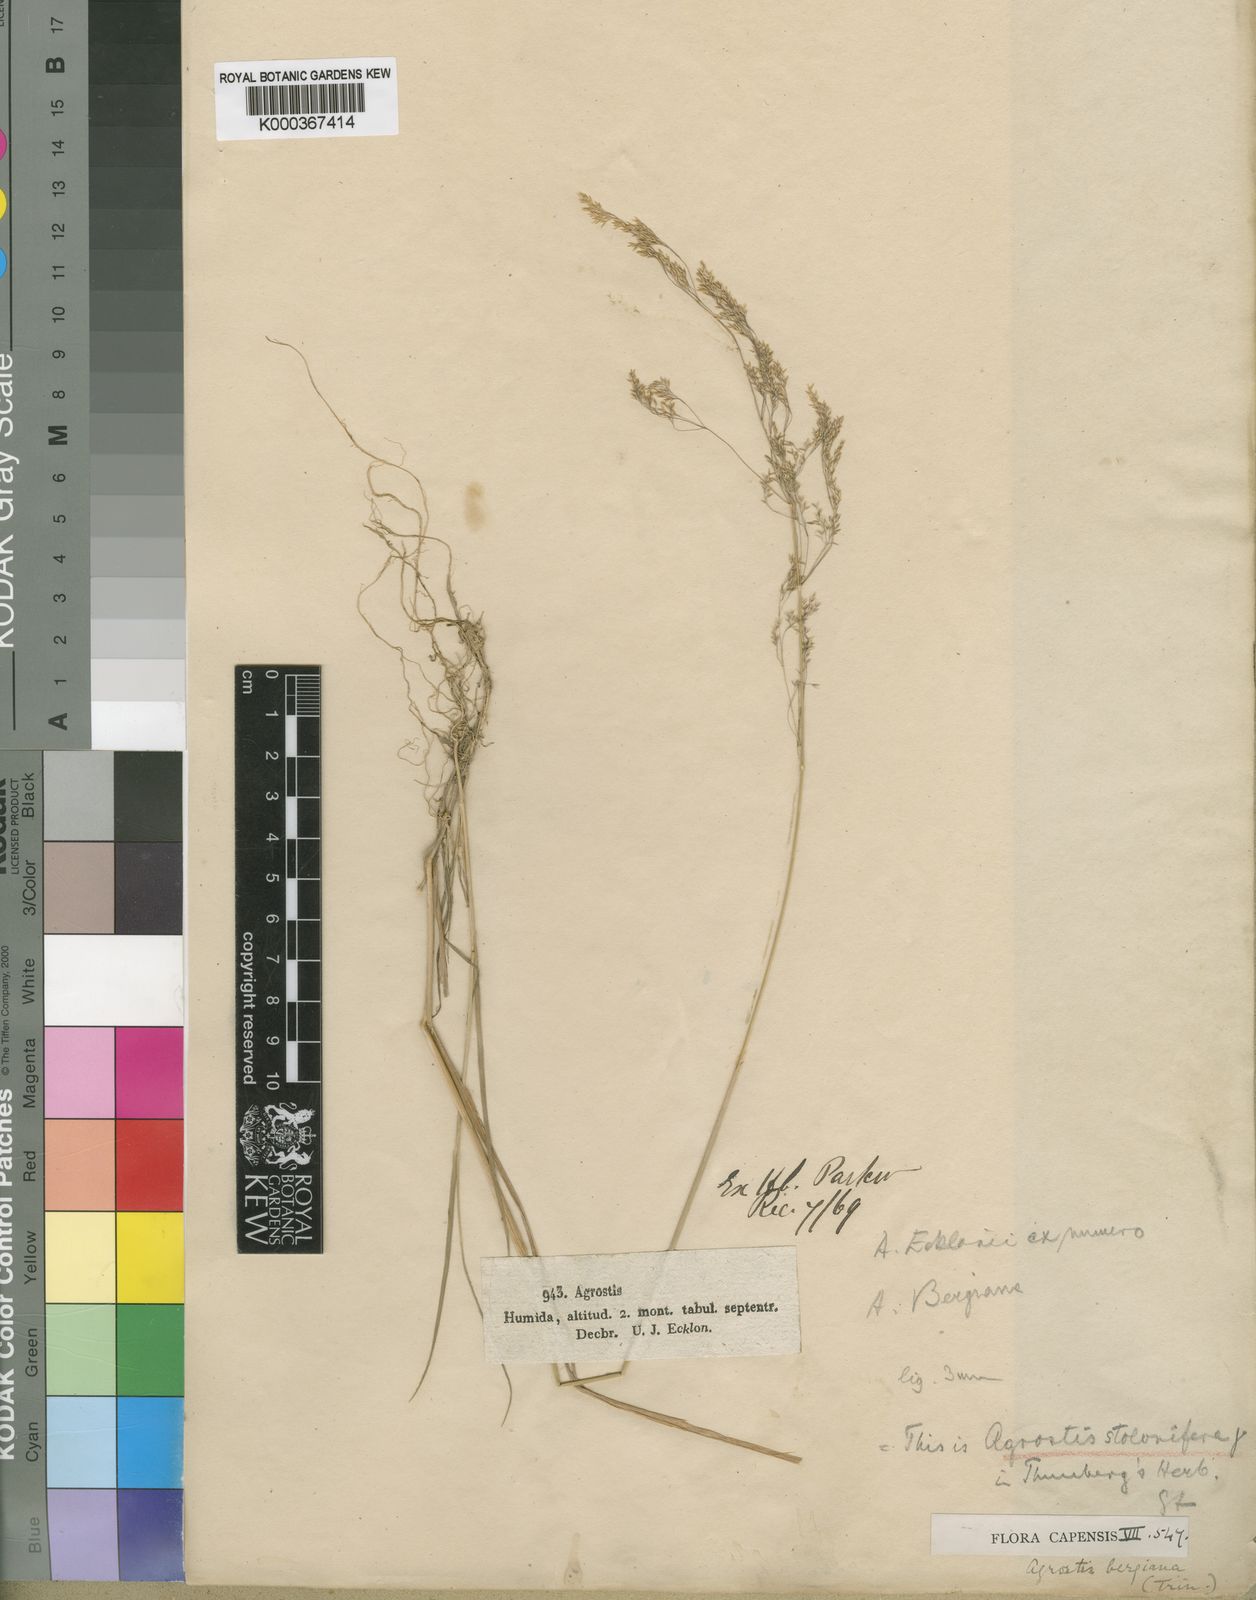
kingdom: Plantae
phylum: Tracheophyta
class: Liliopsida
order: Poales
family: Poaceae
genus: Agrostis
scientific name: Agrostis bergiana
